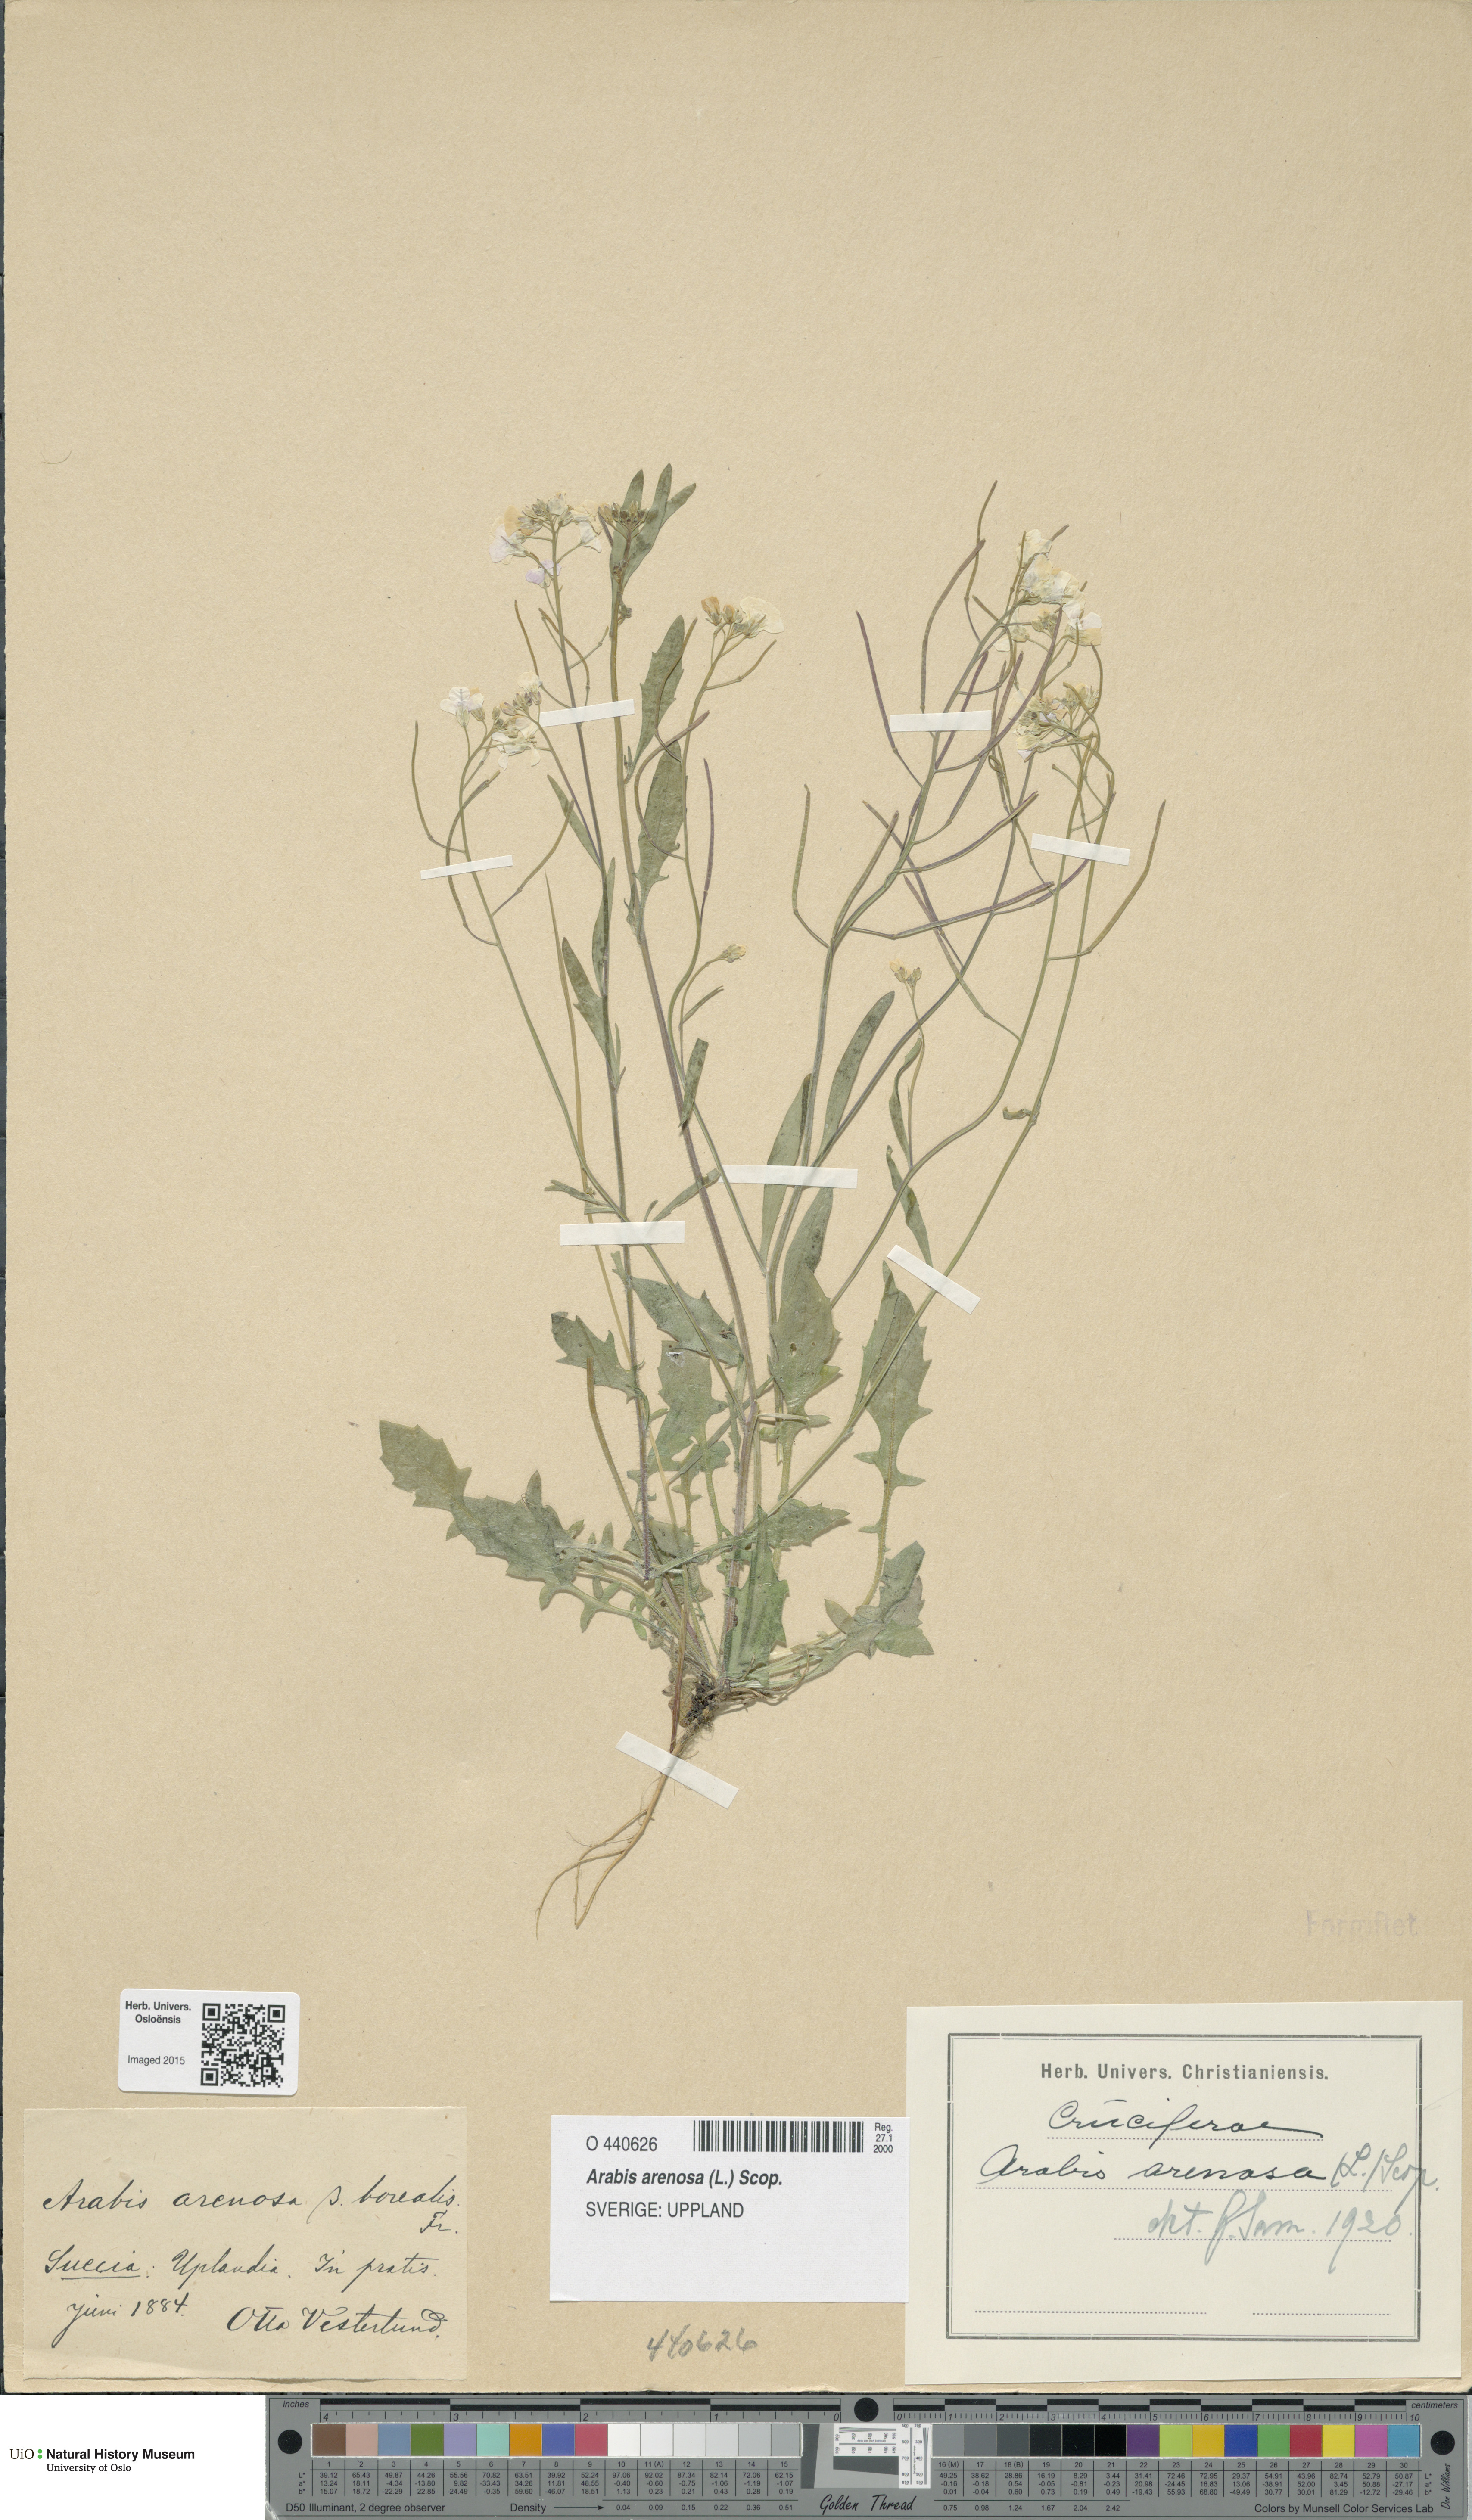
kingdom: Plantae
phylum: Tracheophyta
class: Magnoliopsida
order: Brassicales
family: Brassicaceae
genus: Arabidopsis
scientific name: Arabidopsis arenosa
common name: Sand rock-cress
